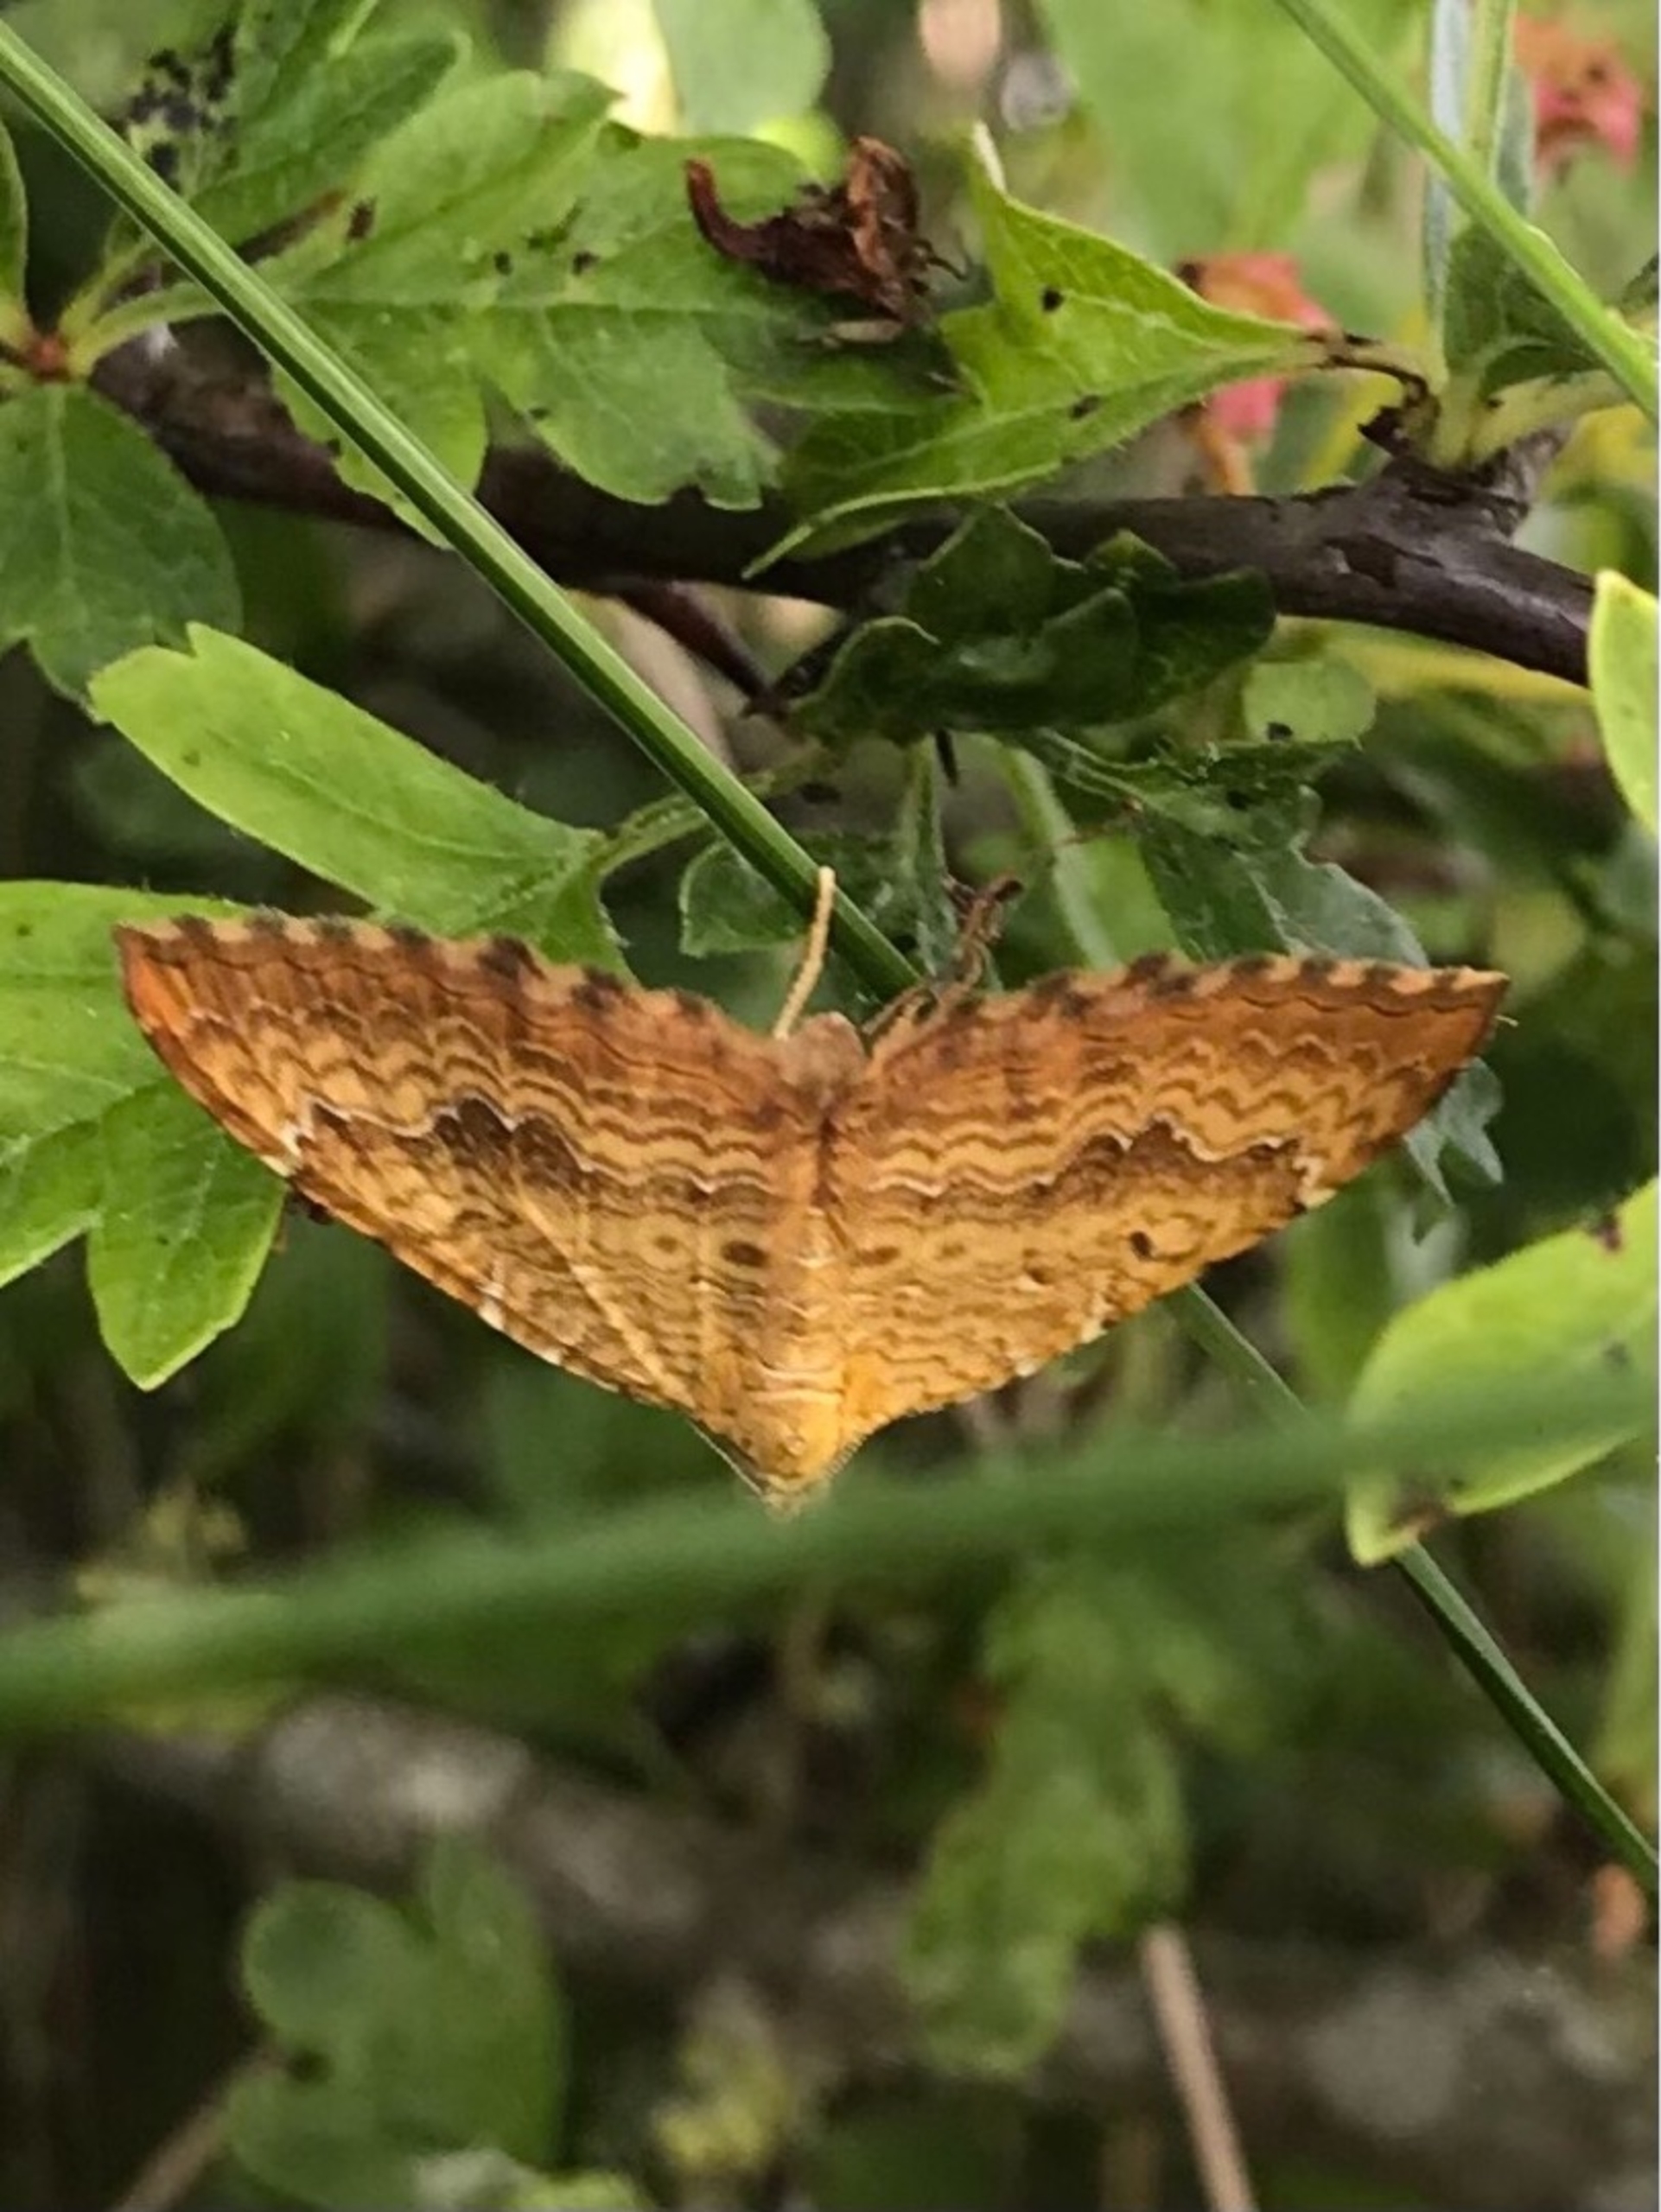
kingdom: Animalia
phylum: Arthropoda
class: Insecta
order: Lepidoptera
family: Geometridae
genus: Camptogramma
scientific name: Camptogramma bilineata
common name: Okkergul bladmåler
